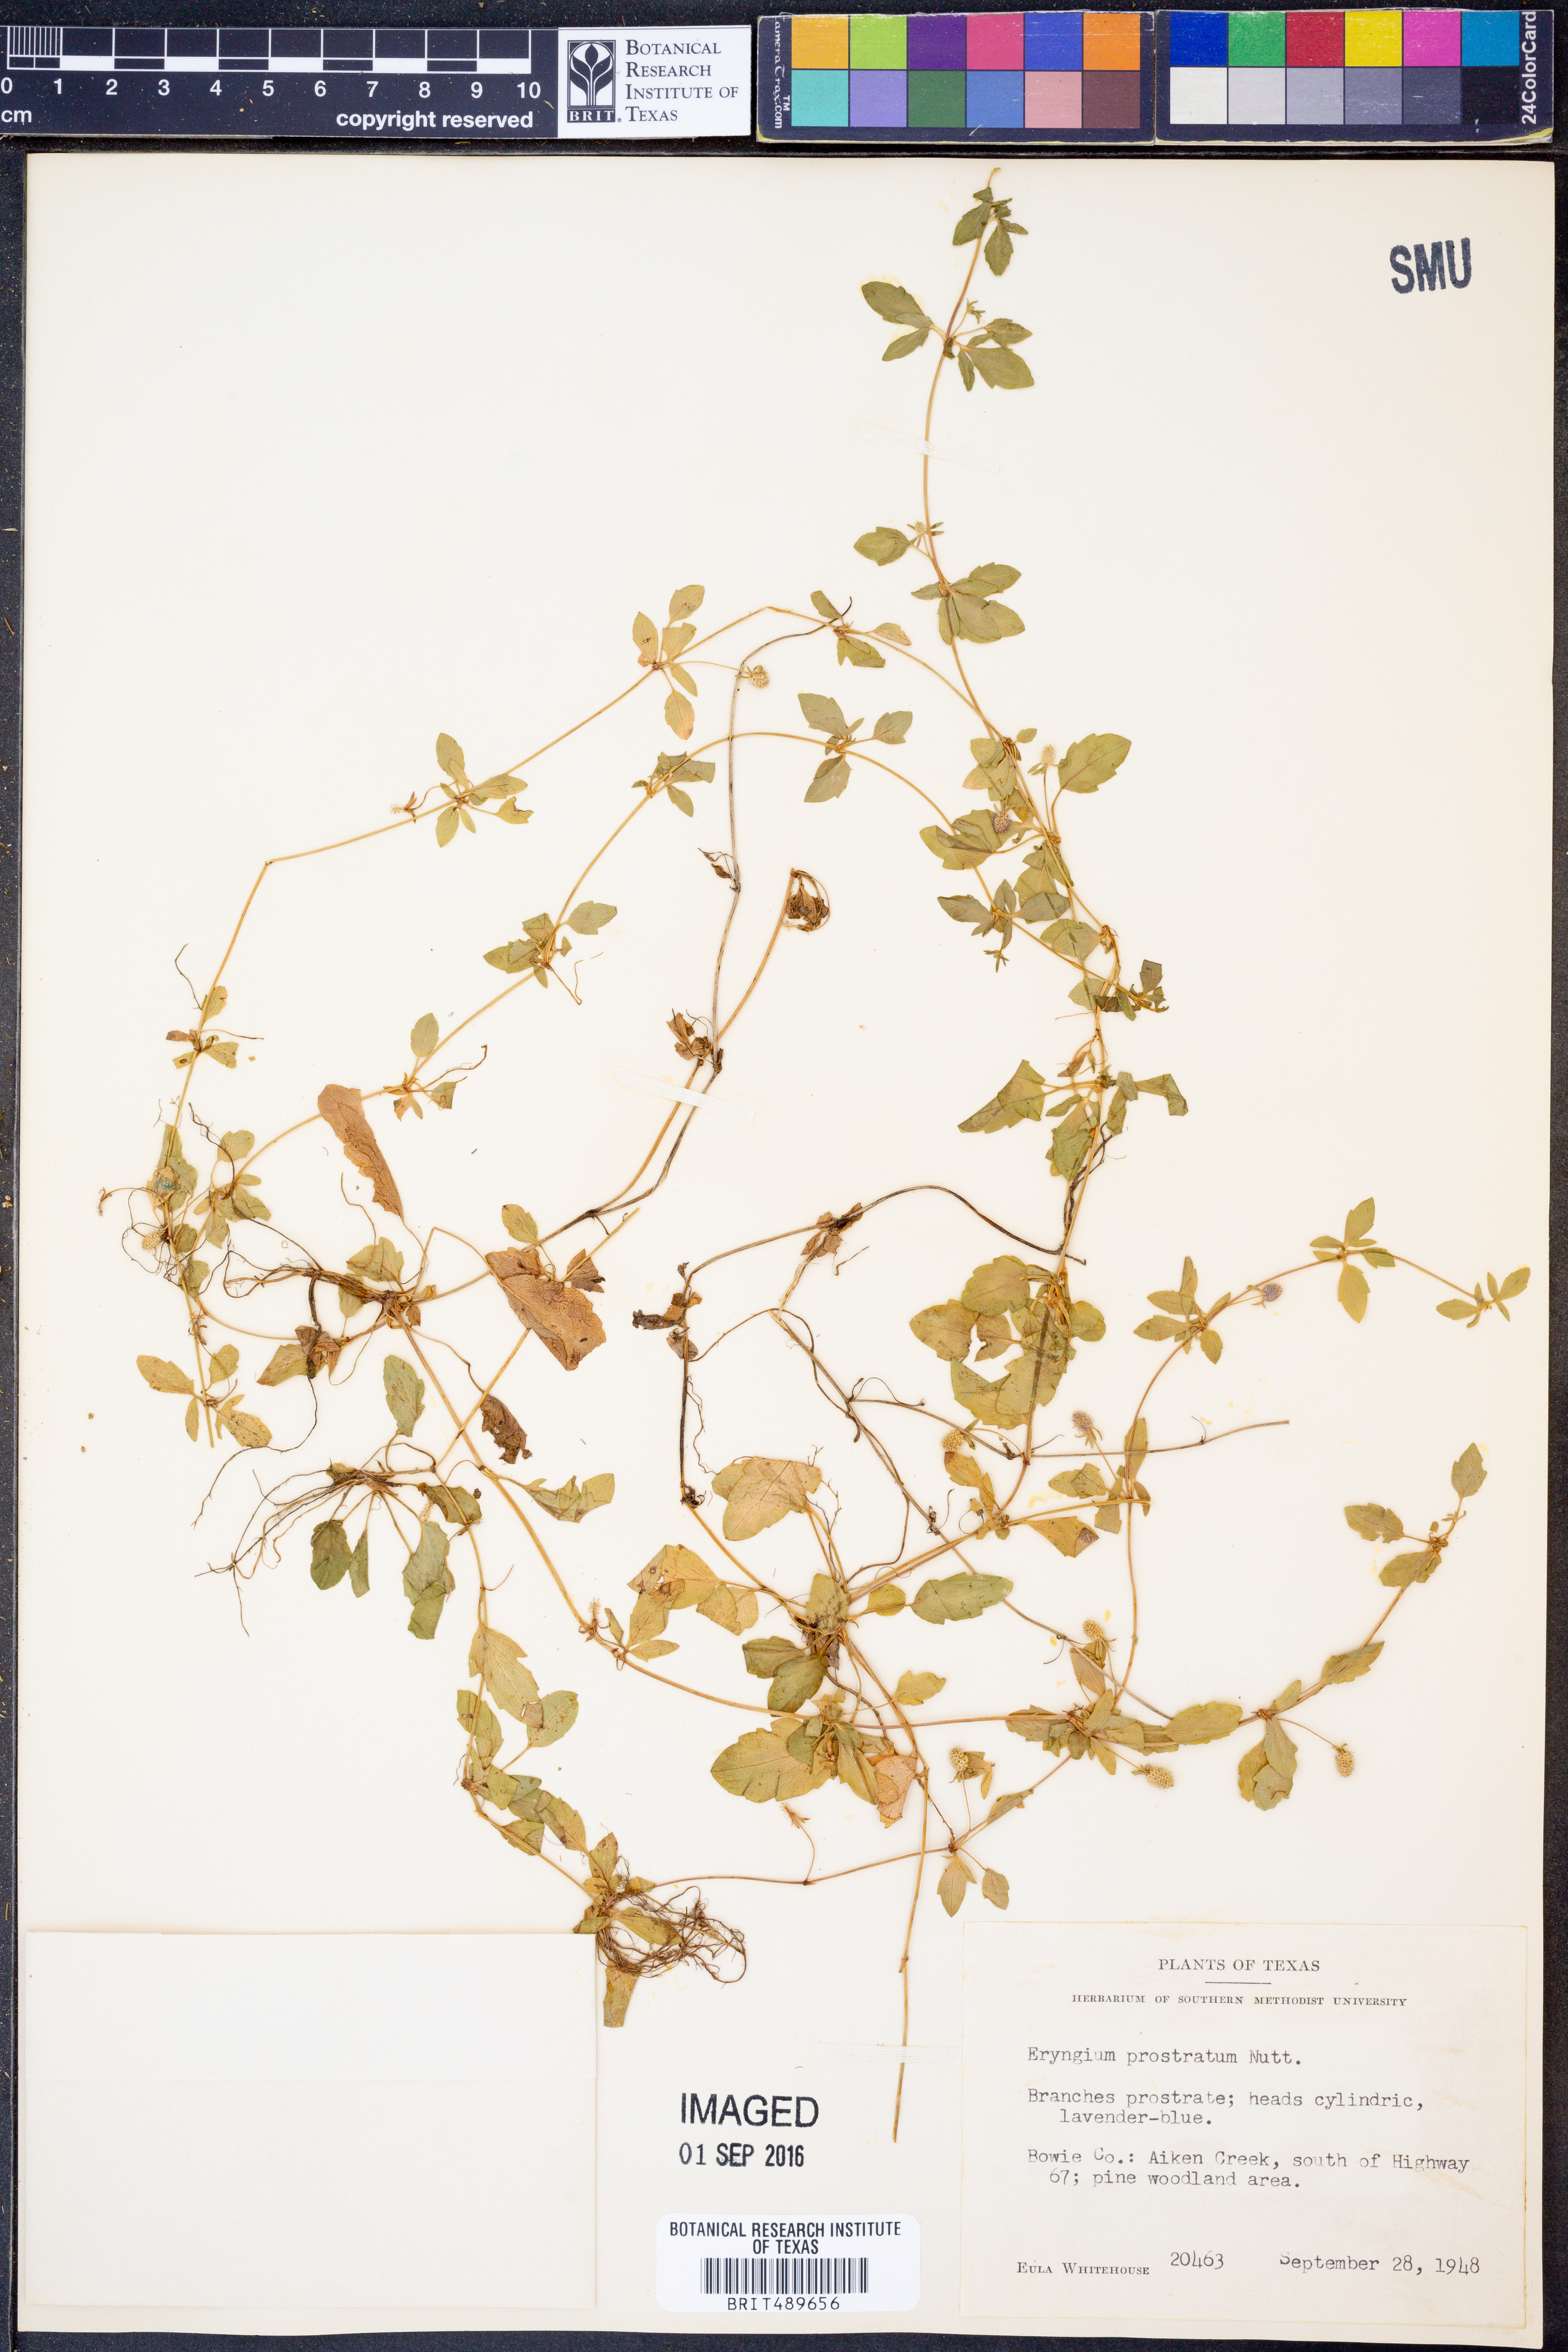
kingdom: Plantae
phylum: Tracheophyta
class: Magnoliopsida
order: Apiales
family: Apiaceae
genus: Eryngium
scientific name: Eryngium prostratum
